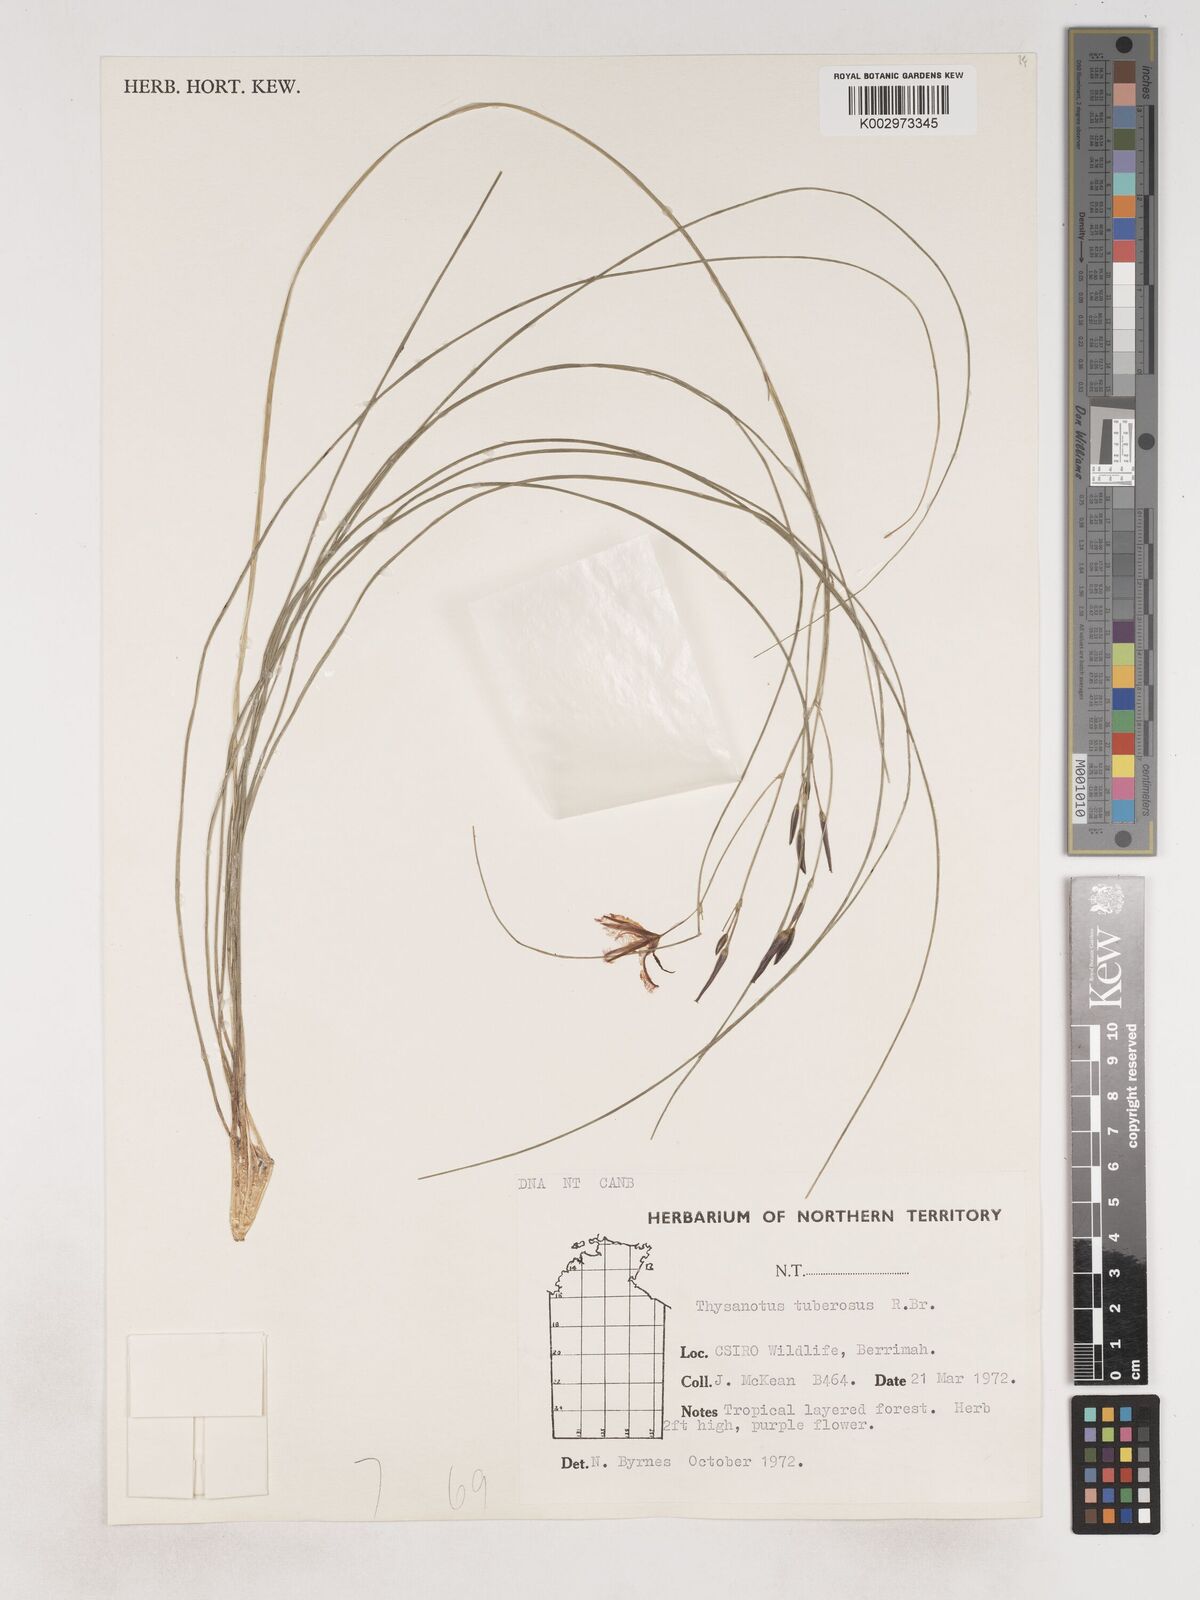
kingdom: Plantae
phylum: Tracheophyta
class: Liliopsida
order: Asparagales
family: Asparagaceae
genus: Thysanotus
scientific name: Thysanotus tuberosus
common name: Common fringed-lily
